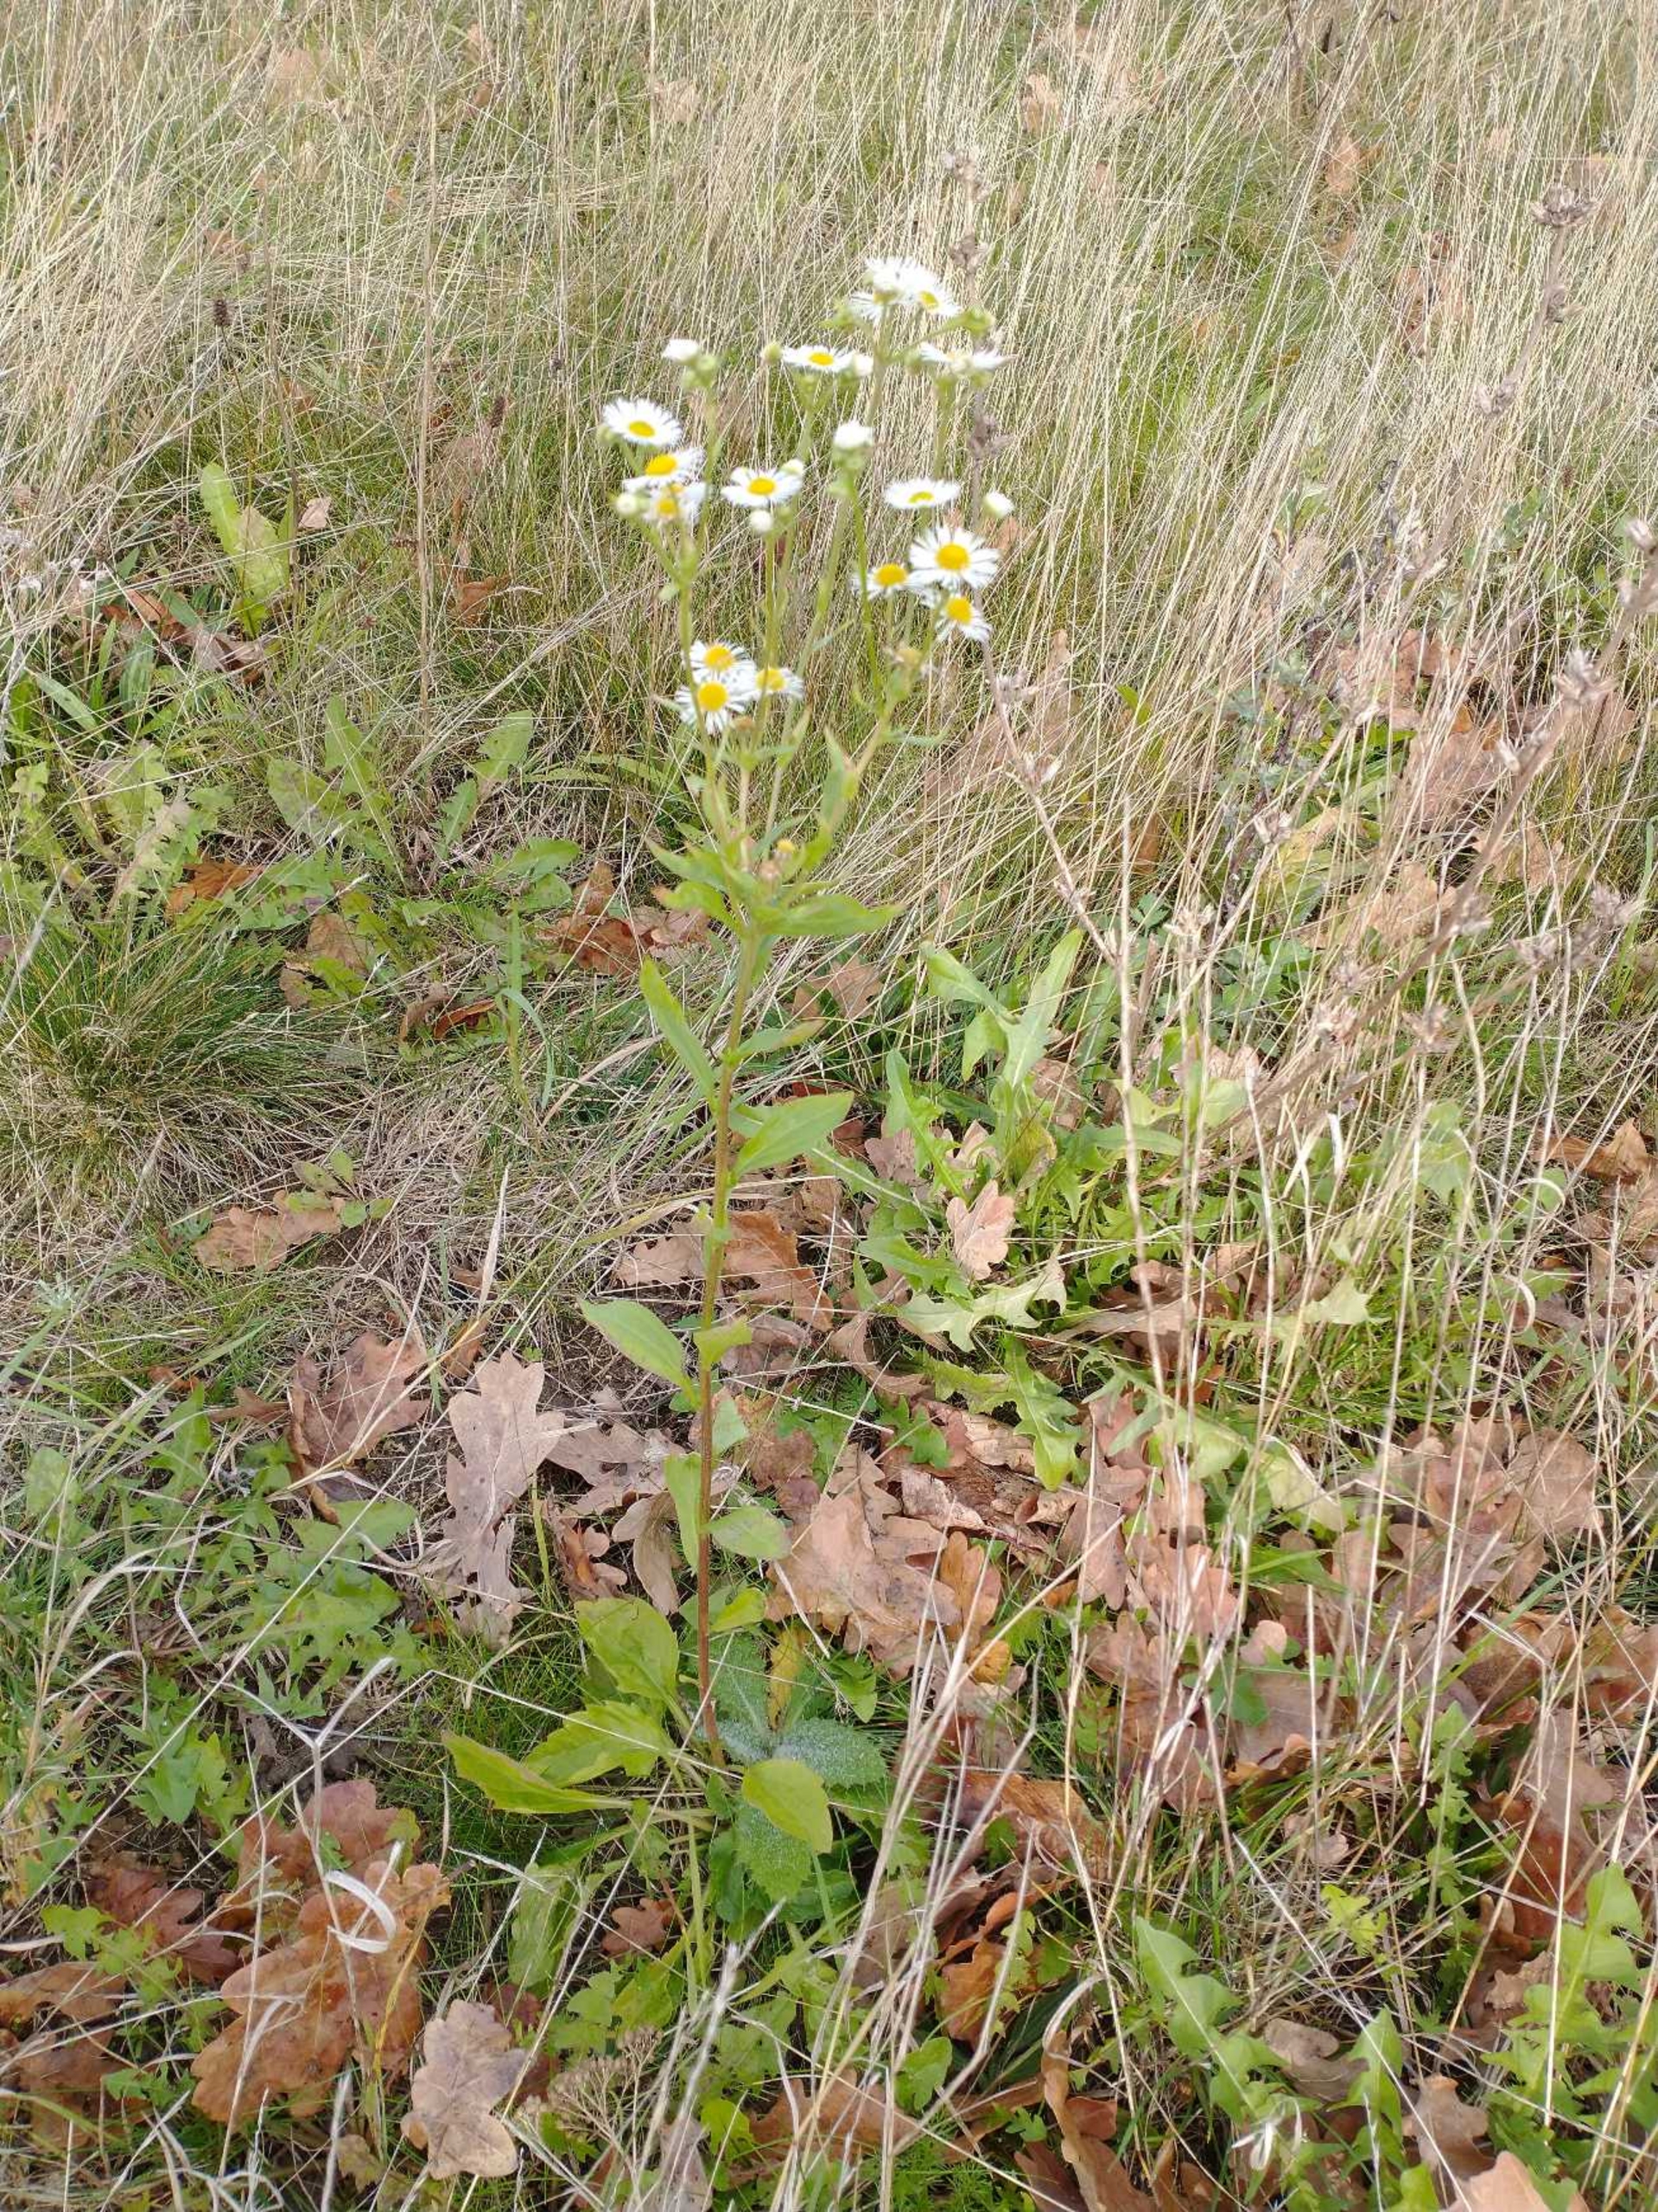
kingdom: Plantae
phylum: Tracheophyta
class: Magnoliopsida
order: Asterales
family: Asteraceae
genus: Erigeron
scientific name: Erigeron annuus
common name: Smalstråle
